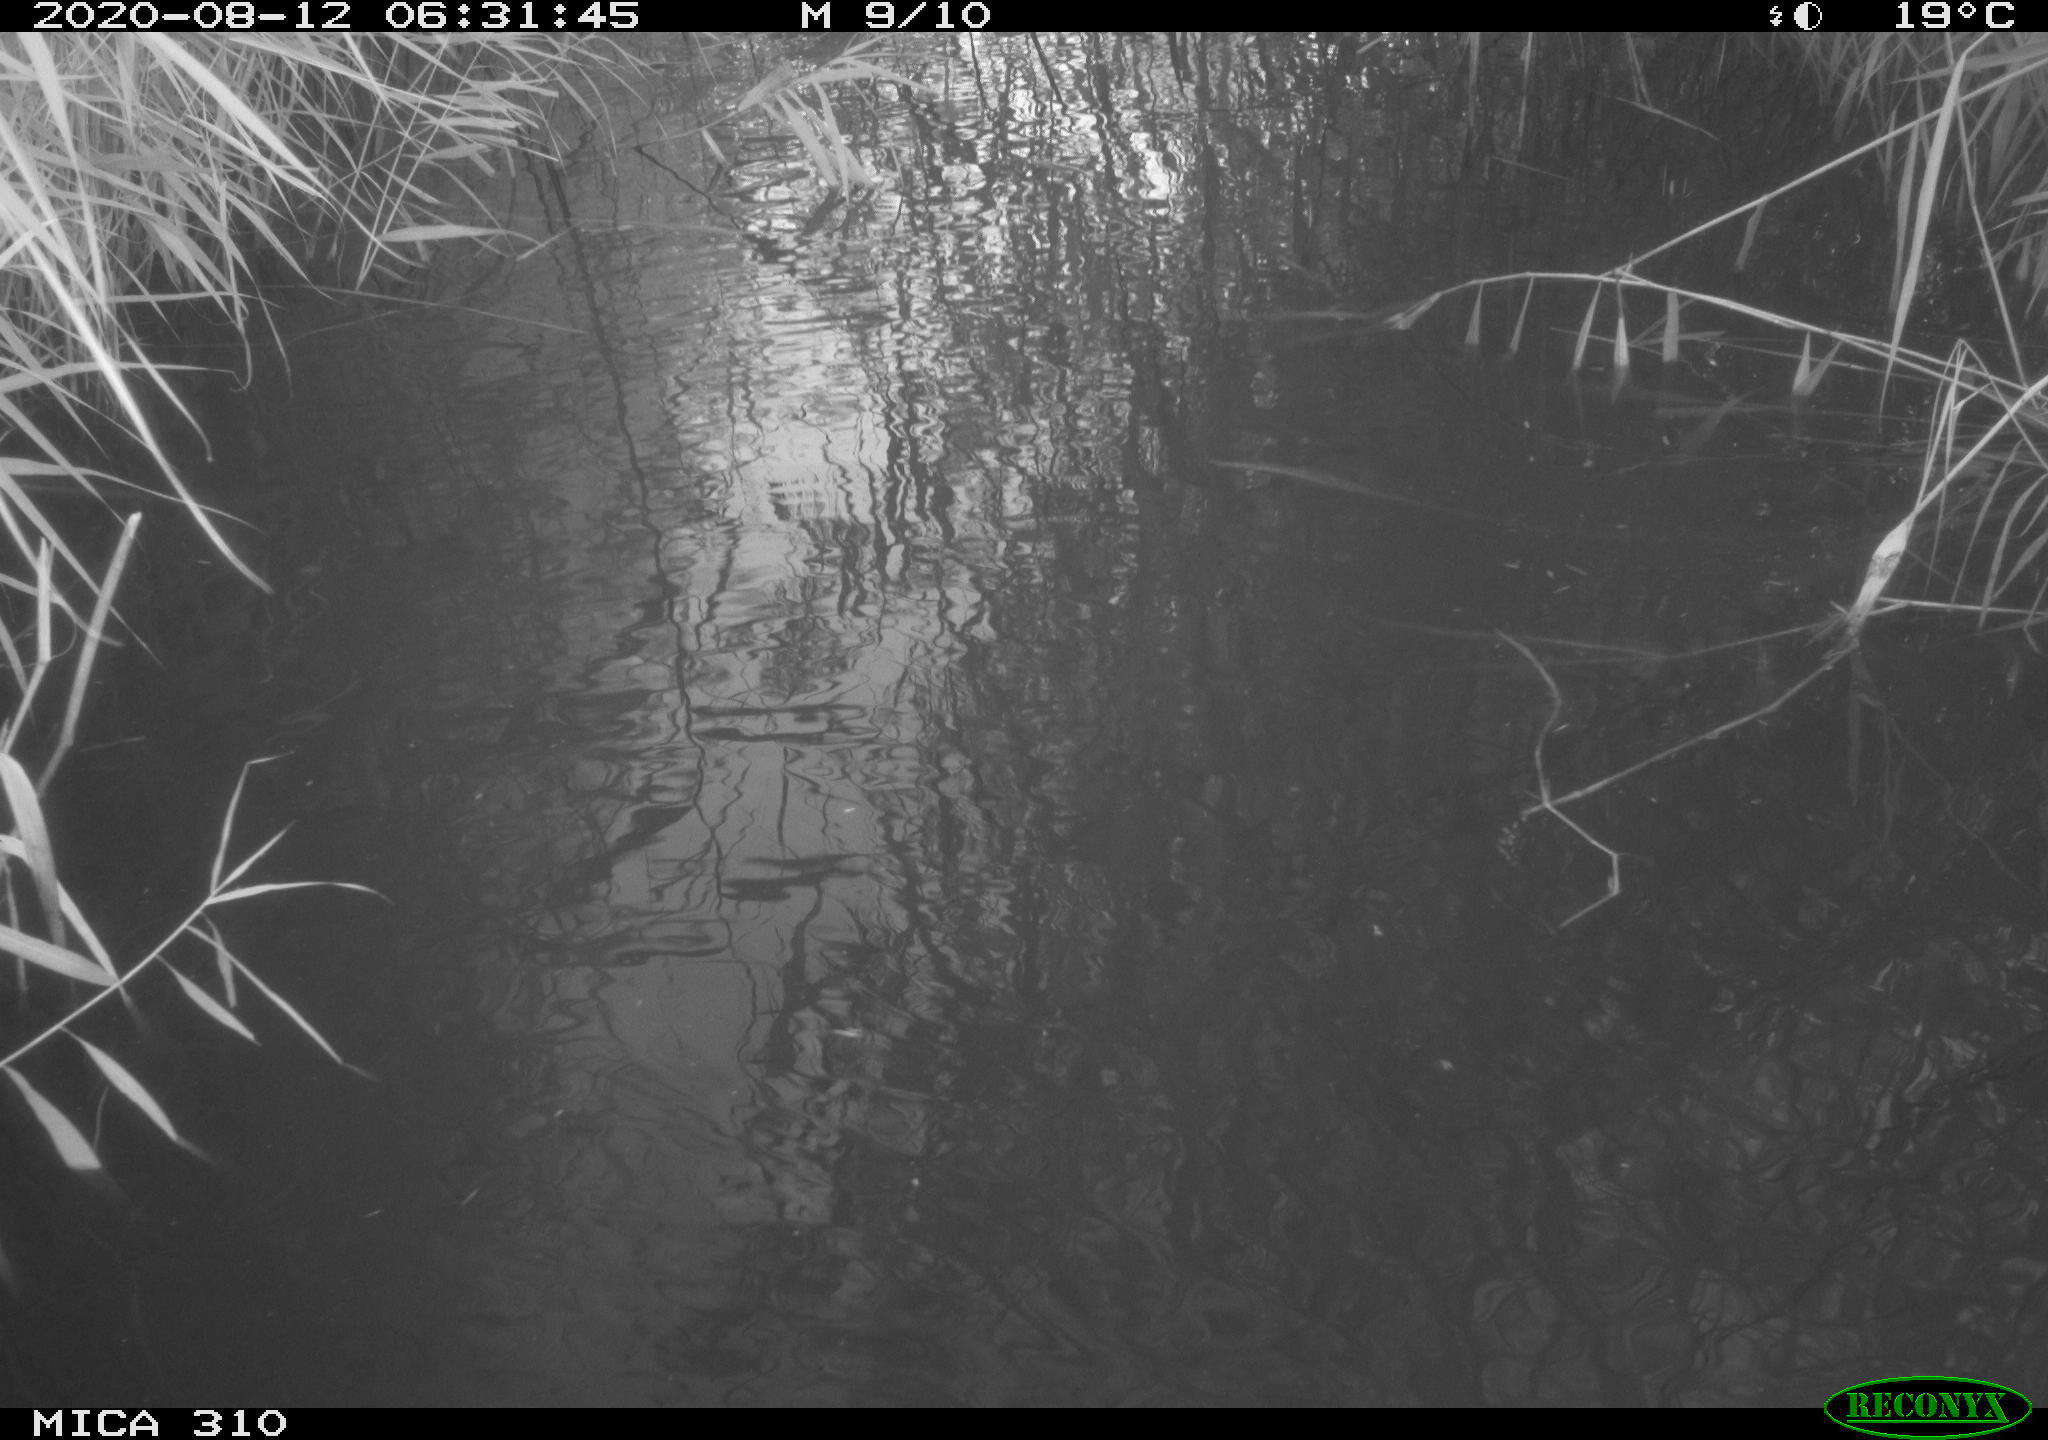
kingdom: Animalia
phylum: Chordata
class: Aves
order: Gruiformes
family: Rallidae
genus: Fulica
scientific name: Fulica atra
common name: Eurasian coot
